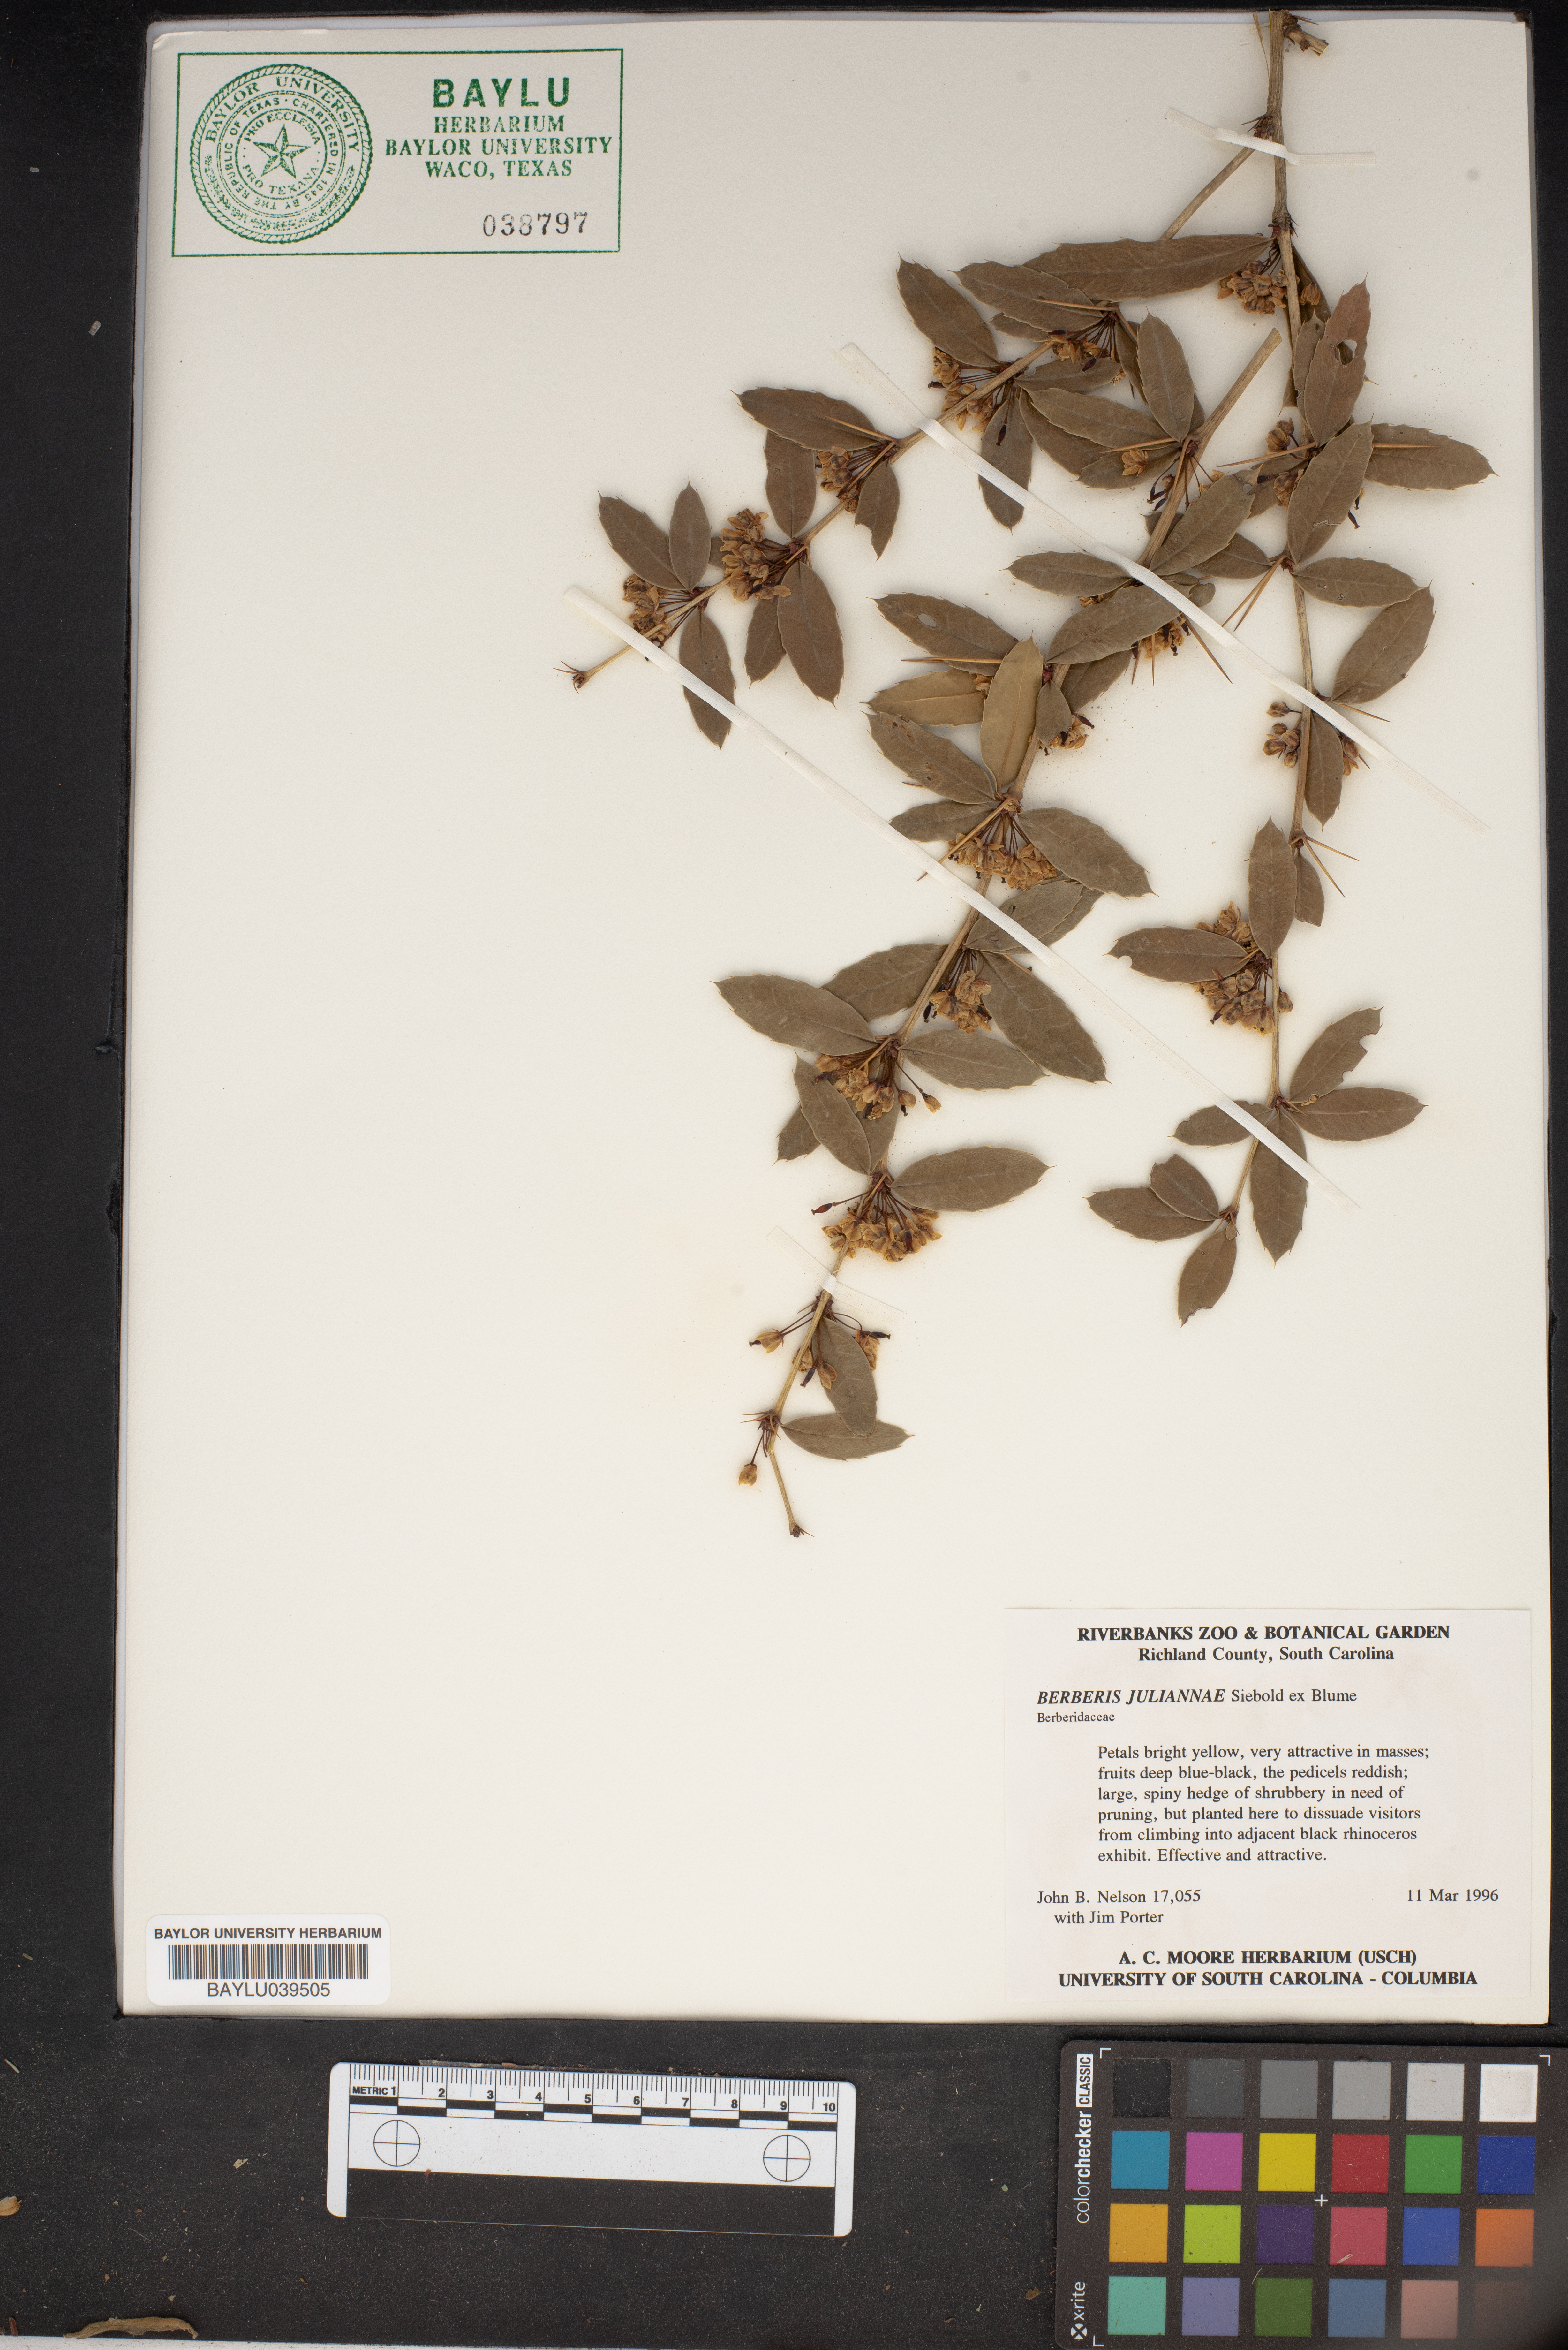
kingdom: Plantae
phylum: Tracheophyta
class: Magnoliopsida
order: Ranunculales
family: Berberidaceae
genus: Berberis
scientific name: Berberis julianae
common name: Wintergreen barberry
